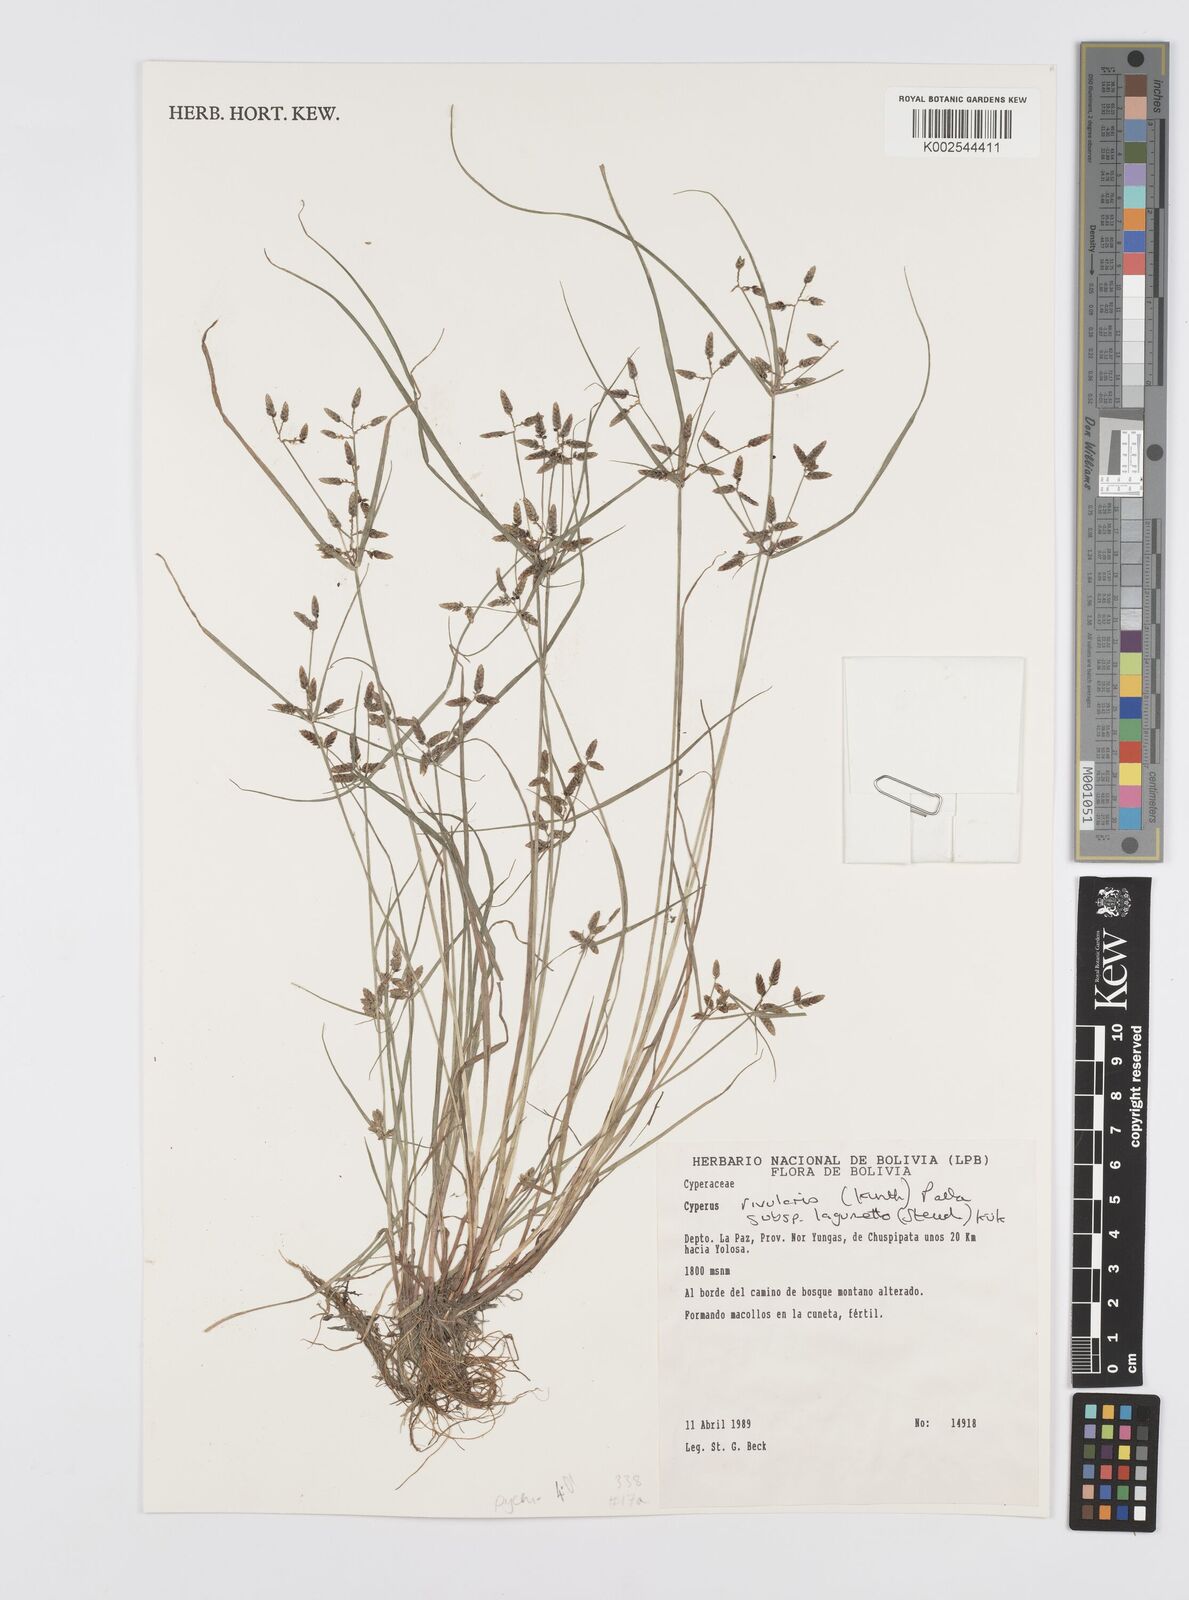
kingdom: Plantae
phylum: Tracheophyta
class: Liliopsida
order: Poales
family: Cyperaceae
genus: Cyperus
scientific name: Cyperus bipartitus
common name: Brook flatsedge
